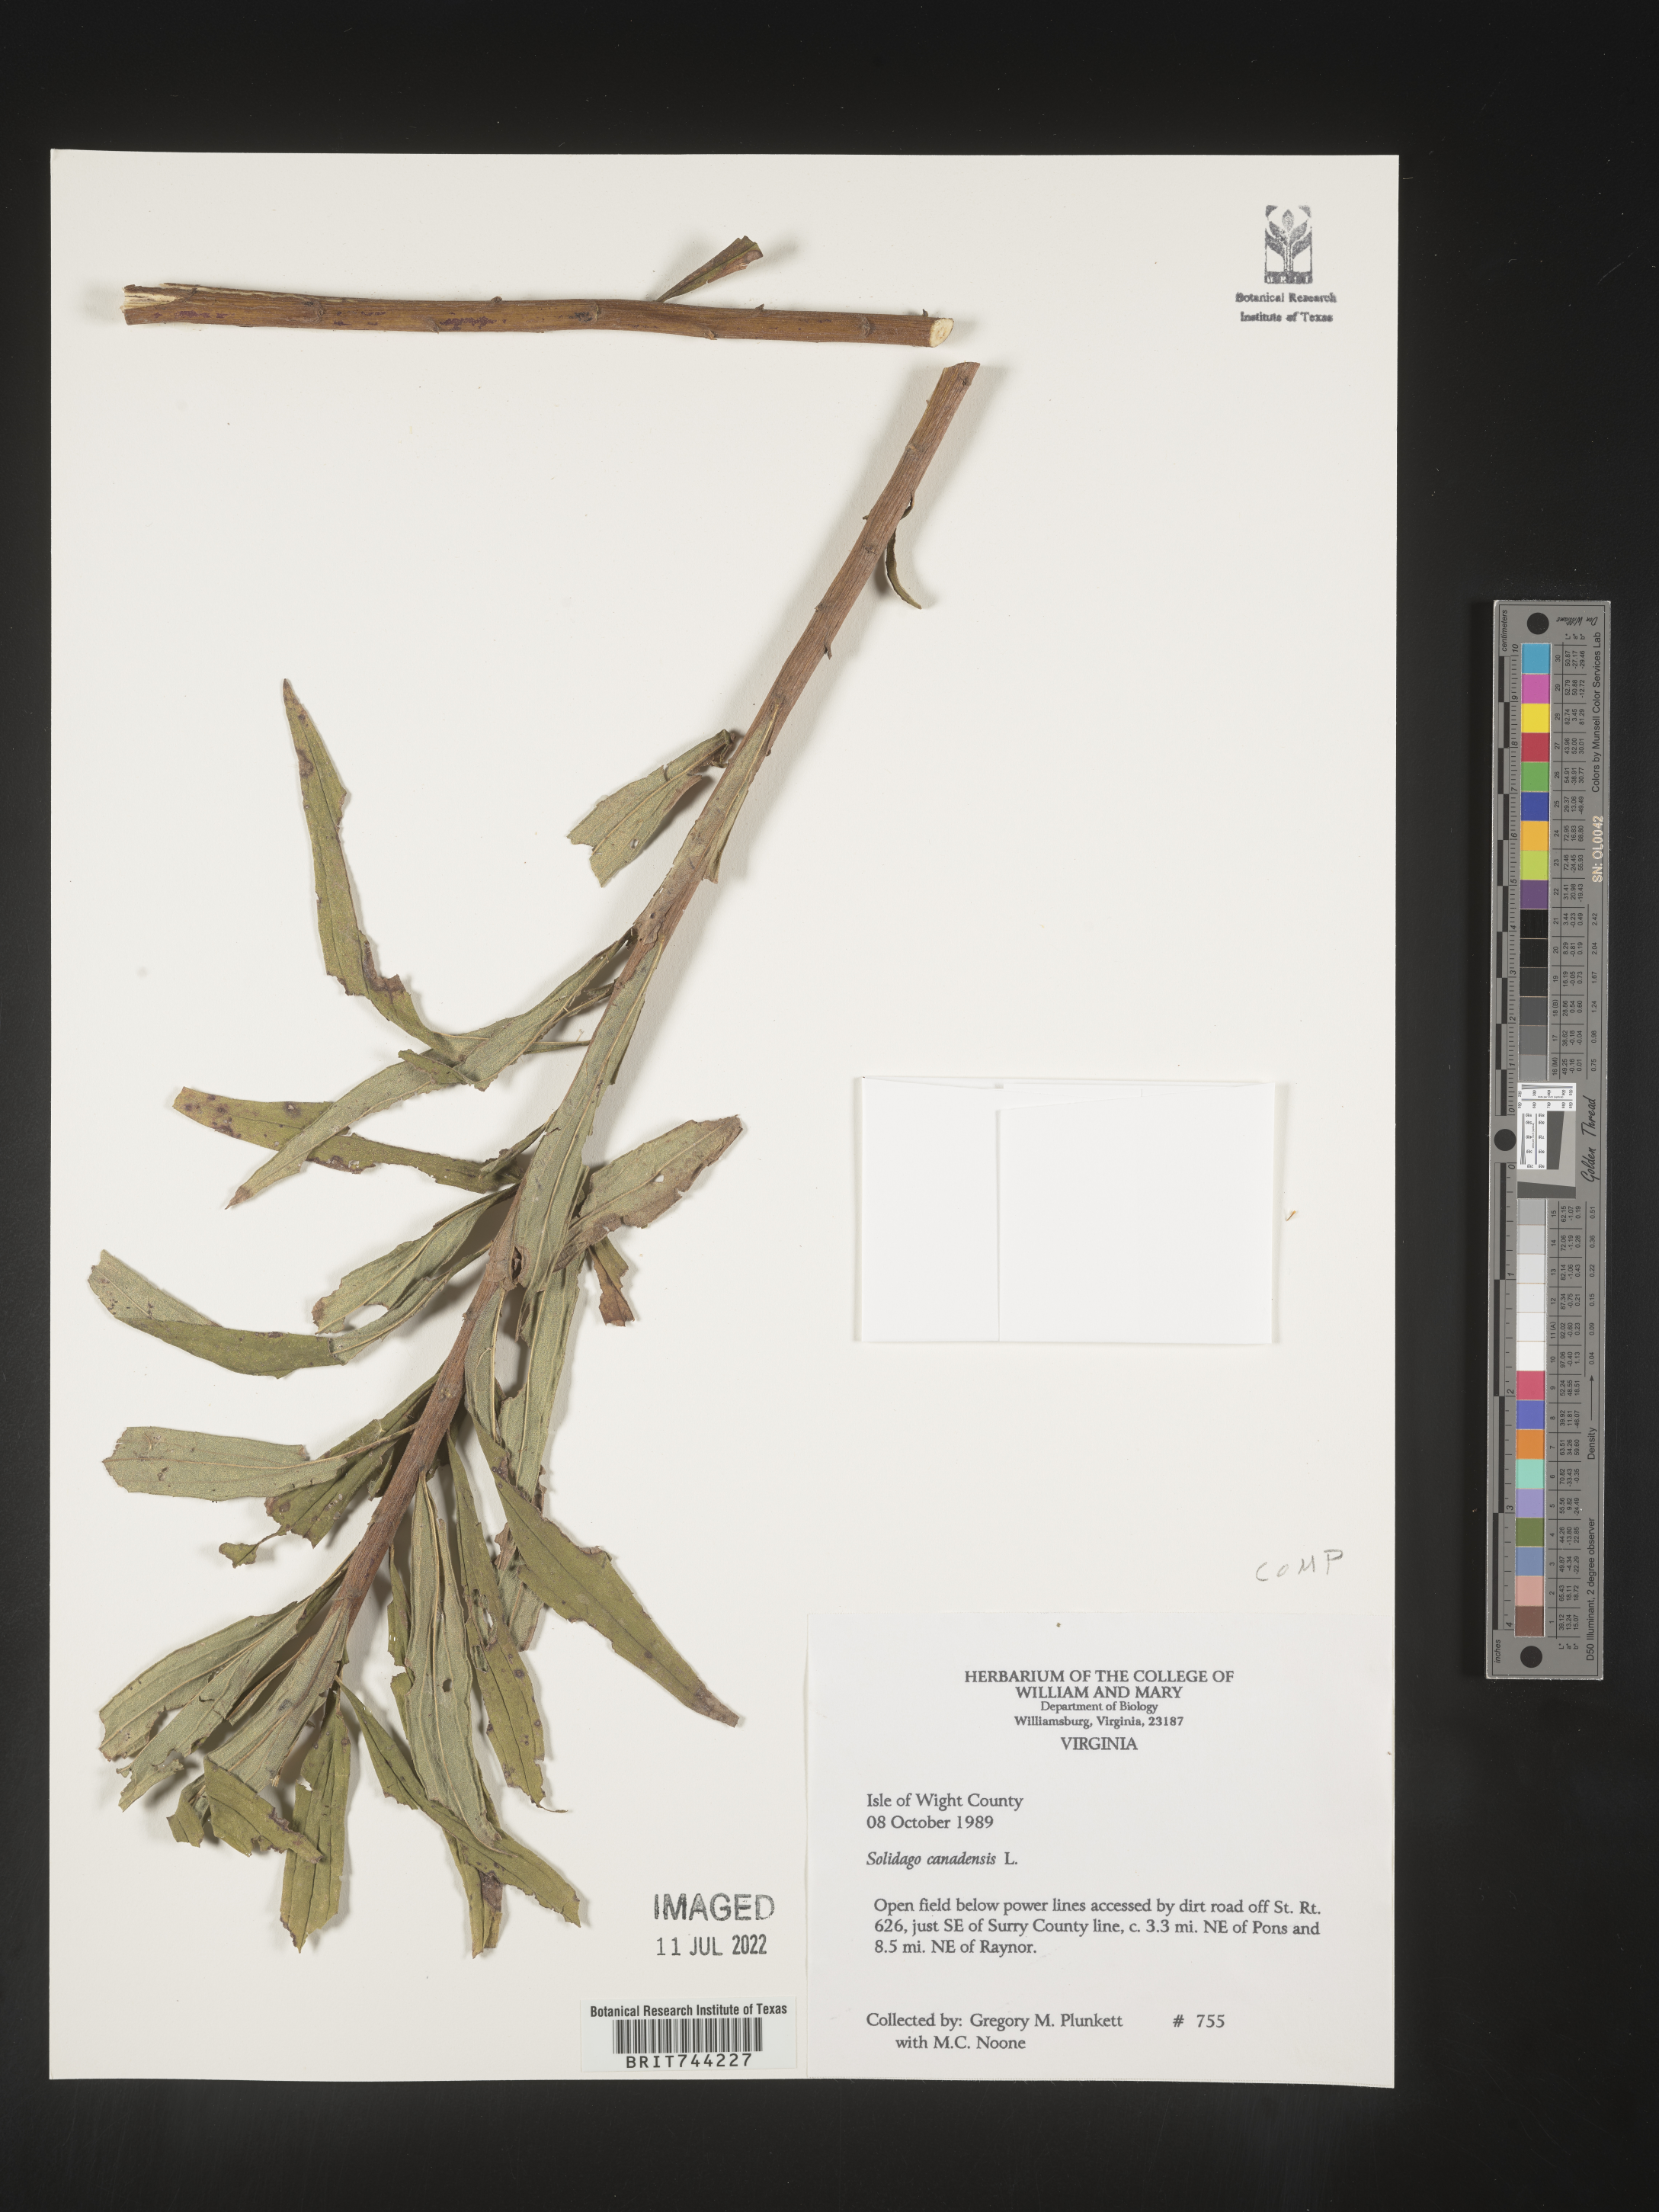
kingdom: Plantae
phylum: Tracheophyta
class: Magnoliopsida
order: Asterales
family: Asteraceae
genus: Solidago
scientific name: Solidago altissima
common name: Late goldenrod
